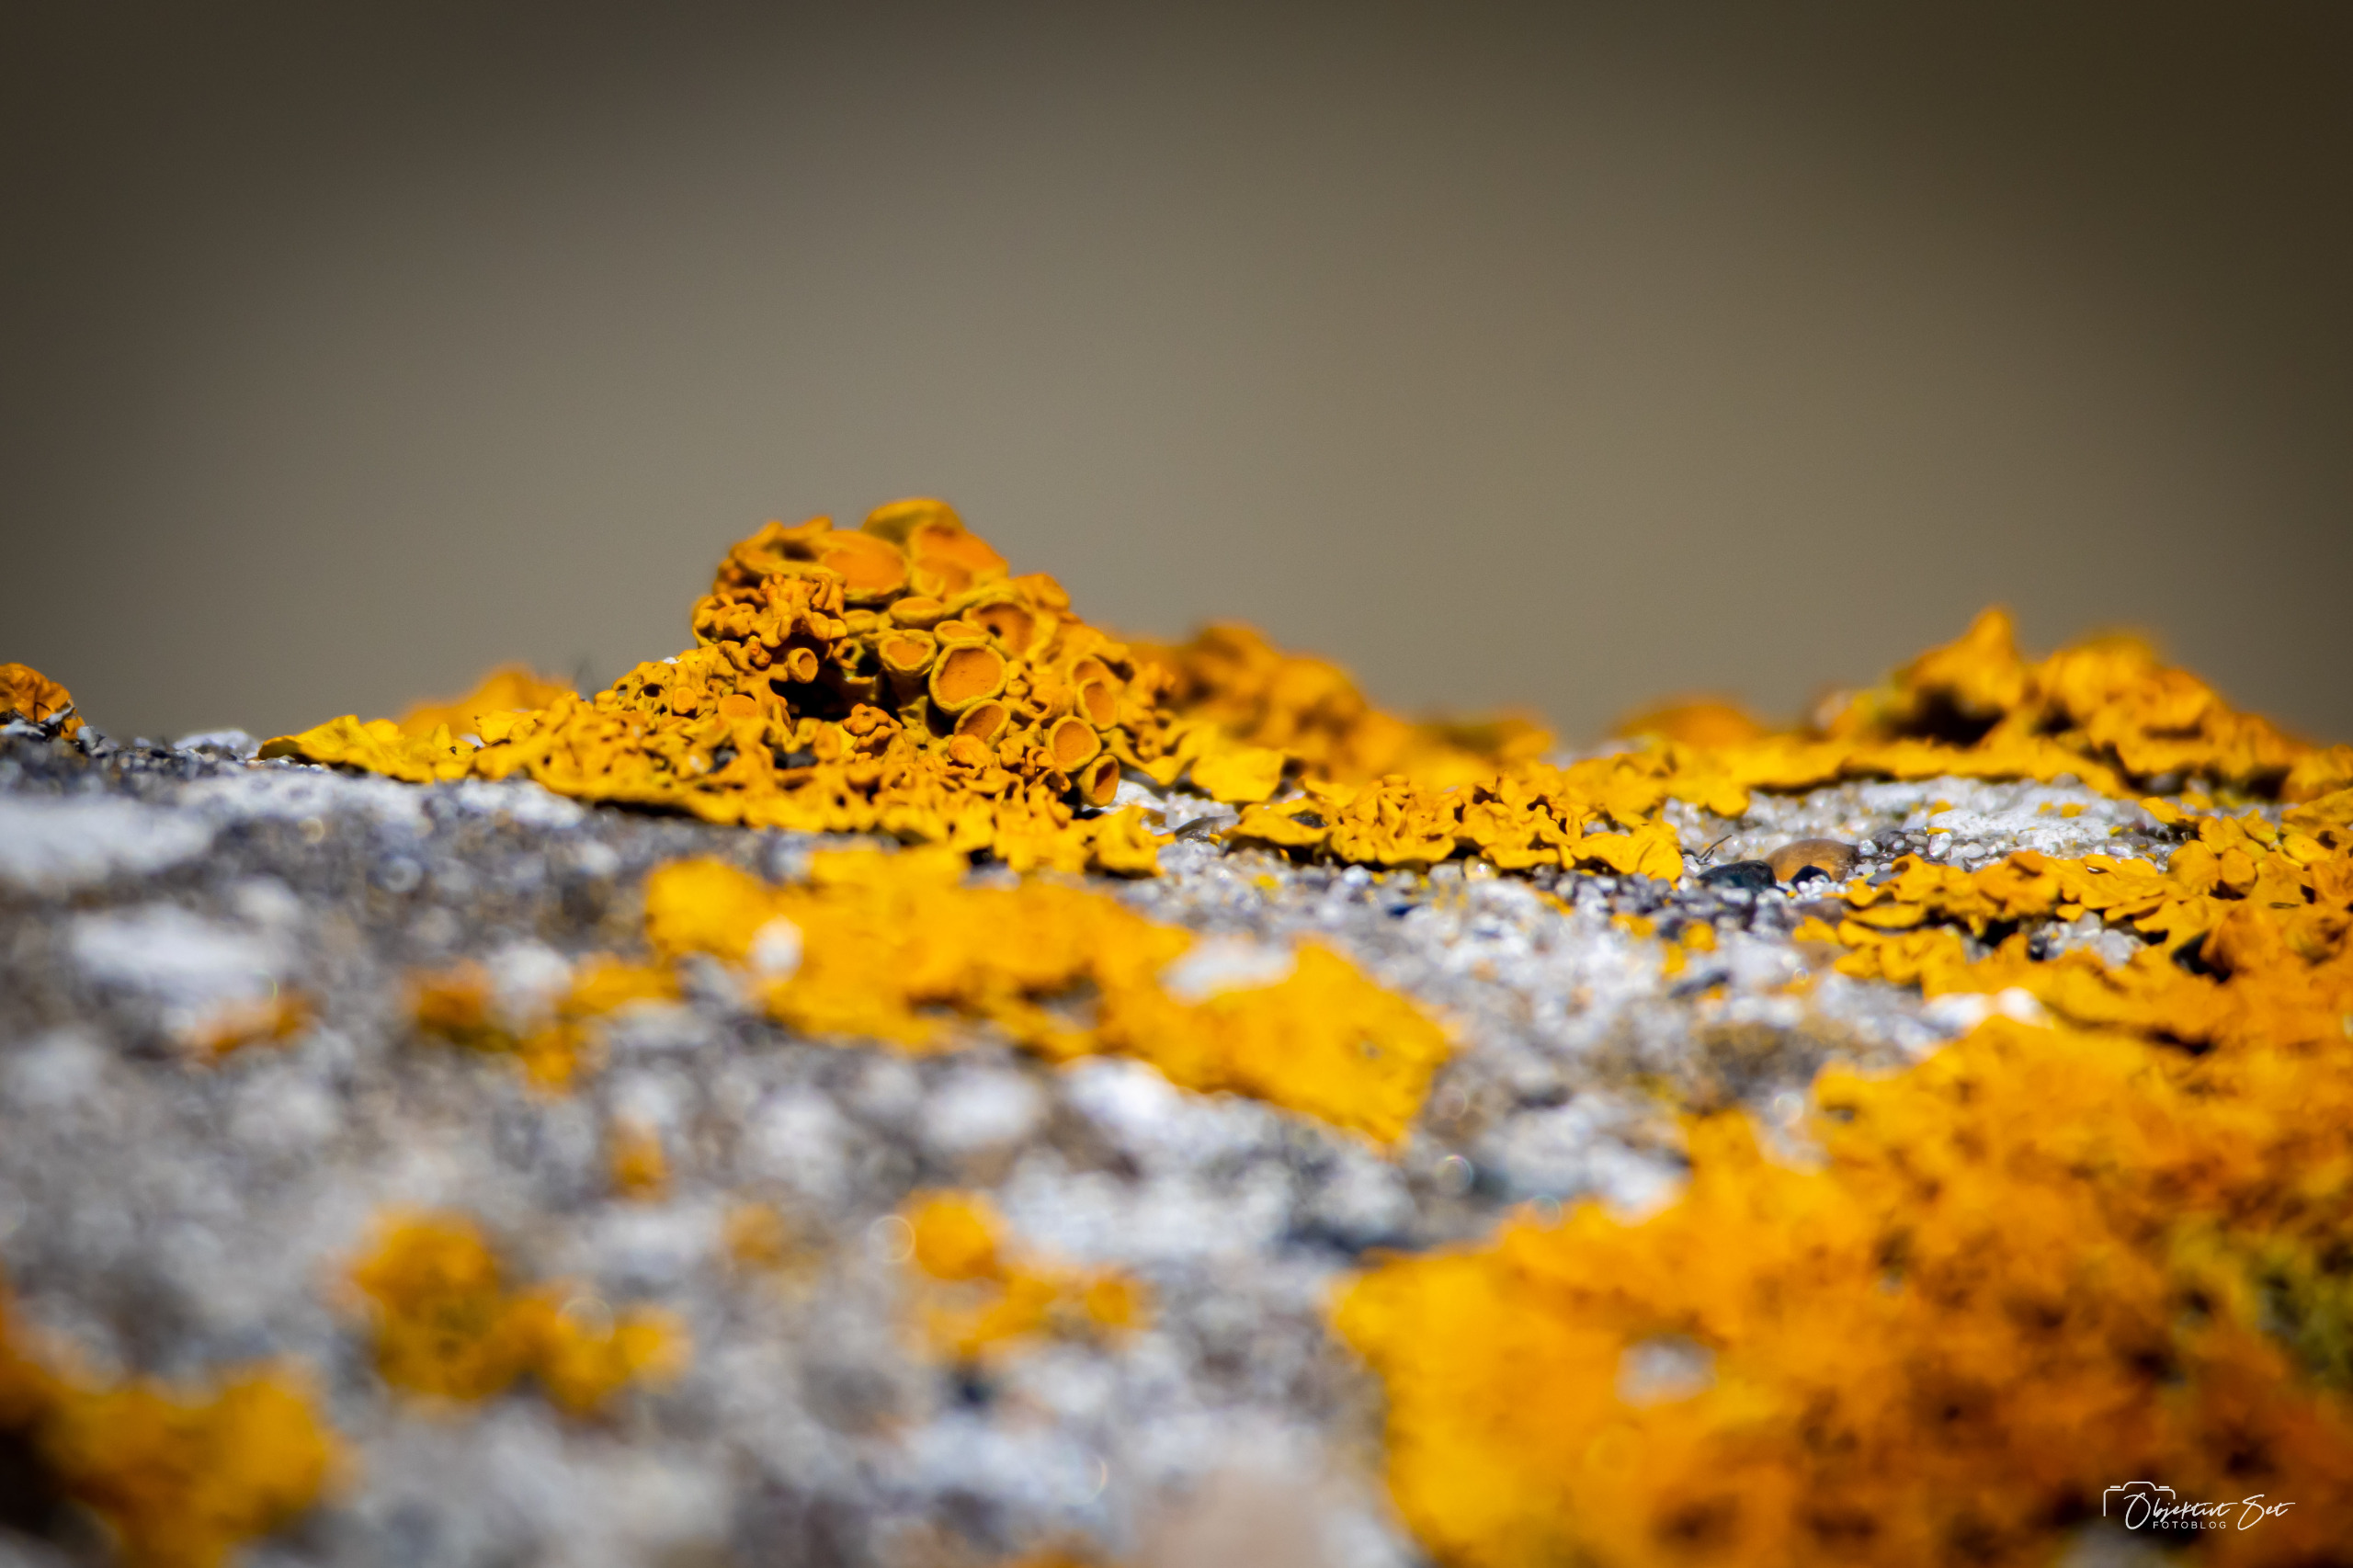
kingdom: Fungi
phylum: Ascomycota
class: Lecanoromycetes
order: Teloschistales
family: Teloschistaceae
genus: Xanthoria
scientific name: Xanthoria parietina
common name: Almindelig væggelav
